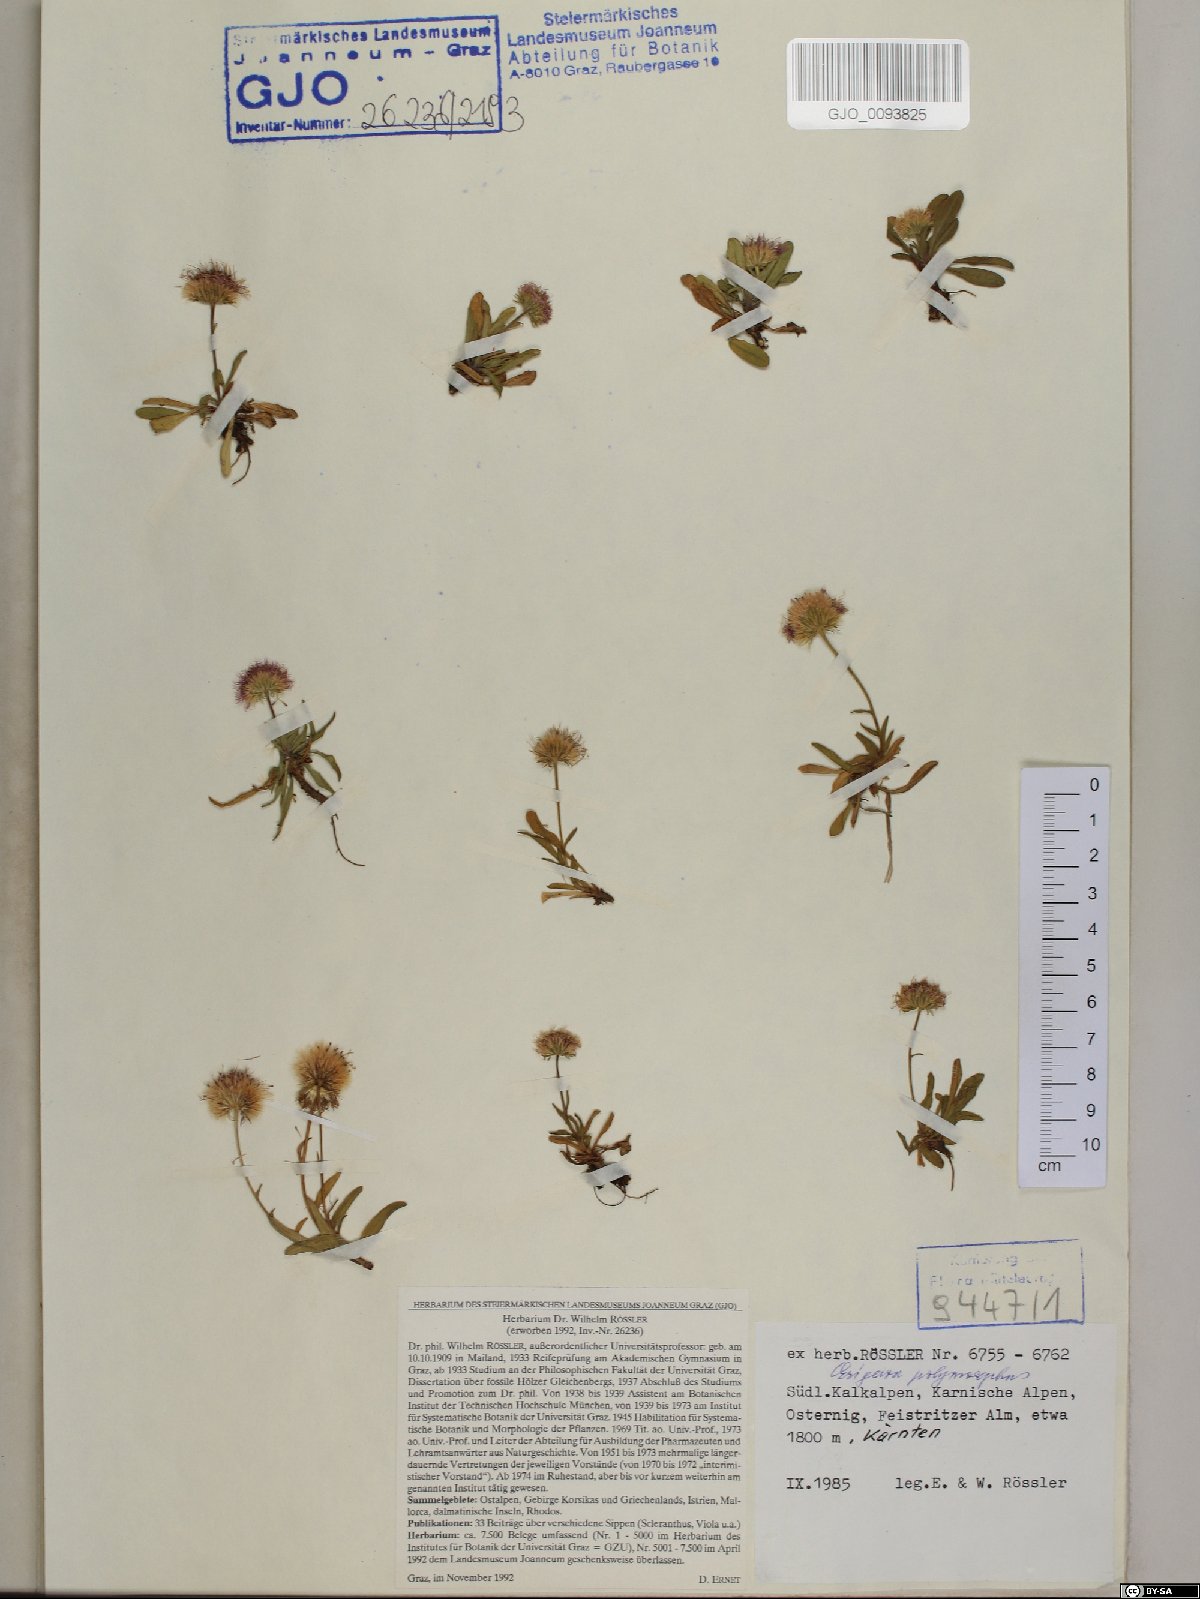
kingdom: Plantae
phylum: Tracheophyta
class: Magnoliopsida
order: Asterales
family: Asteraceae
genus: Erigeron
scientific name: Erigeron alpinus
